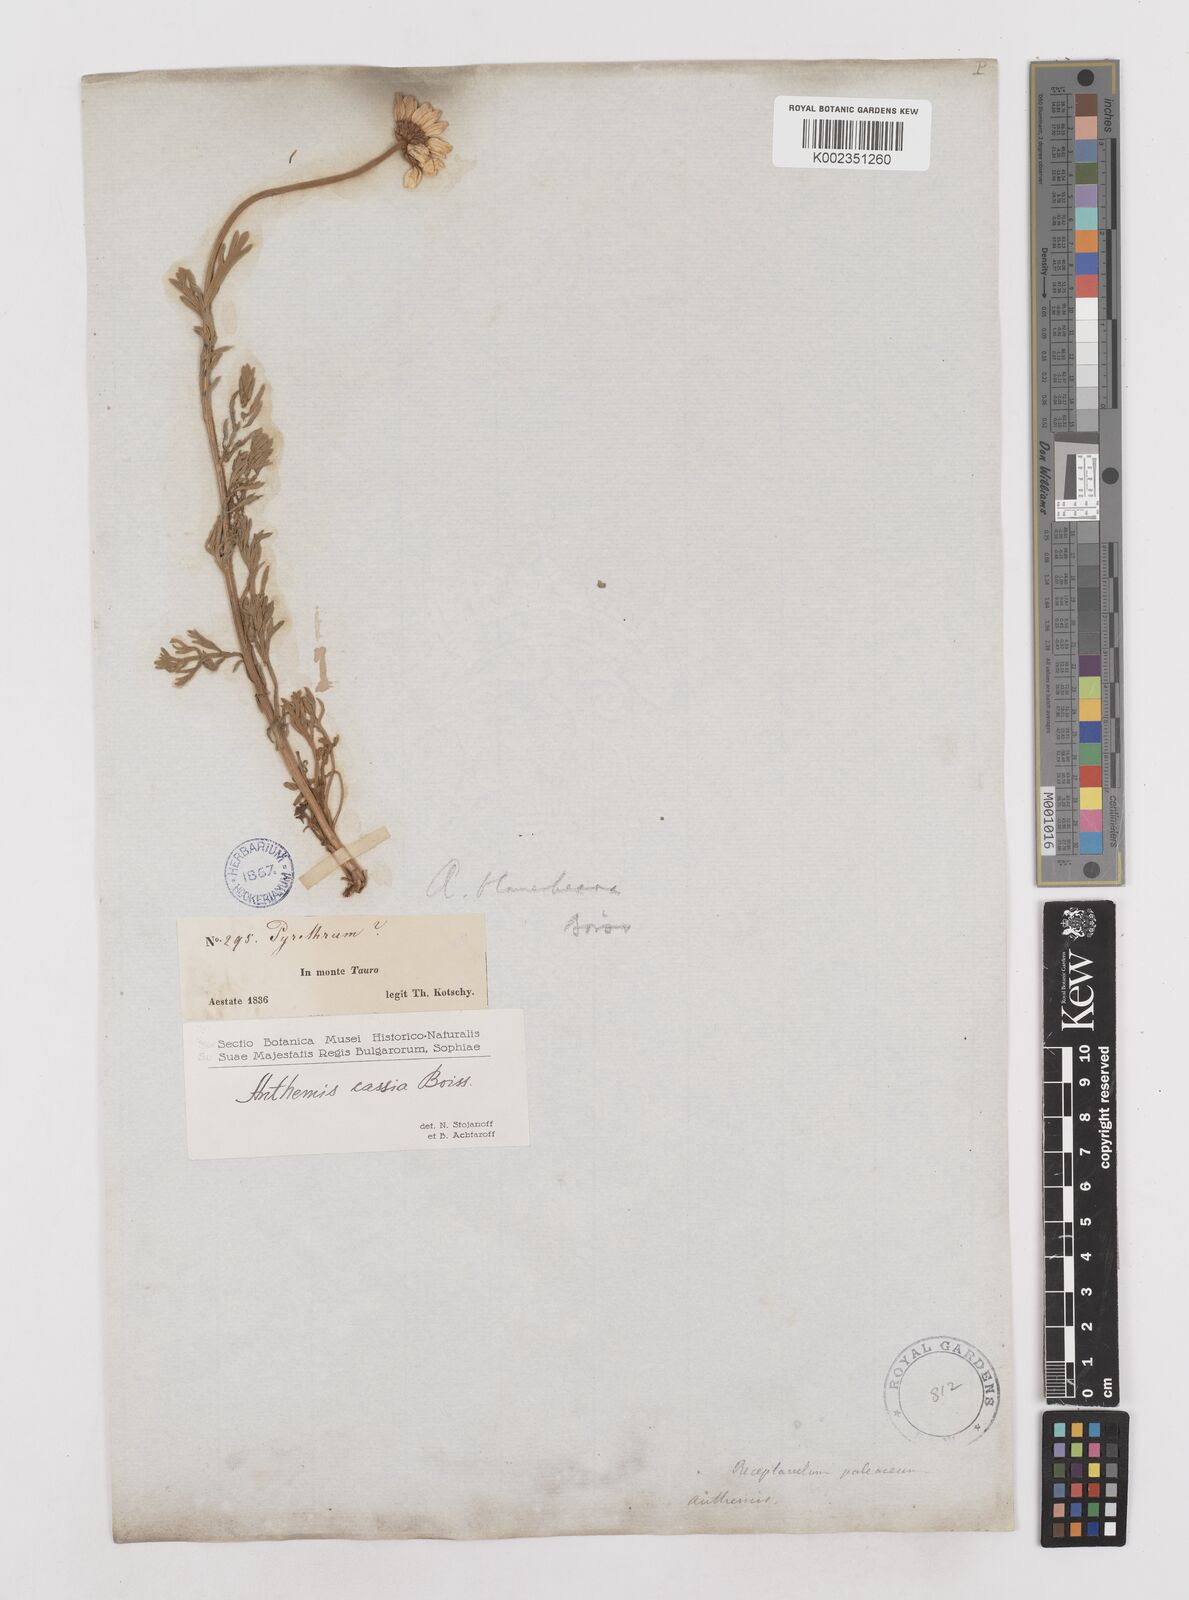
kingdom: Plantae
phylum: Tracheophyta
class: Magnoliopsida
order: Asterales
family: Asteraceae
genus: Anthemis
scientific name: Anthemis cretica
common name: Mountain dog-daisy
